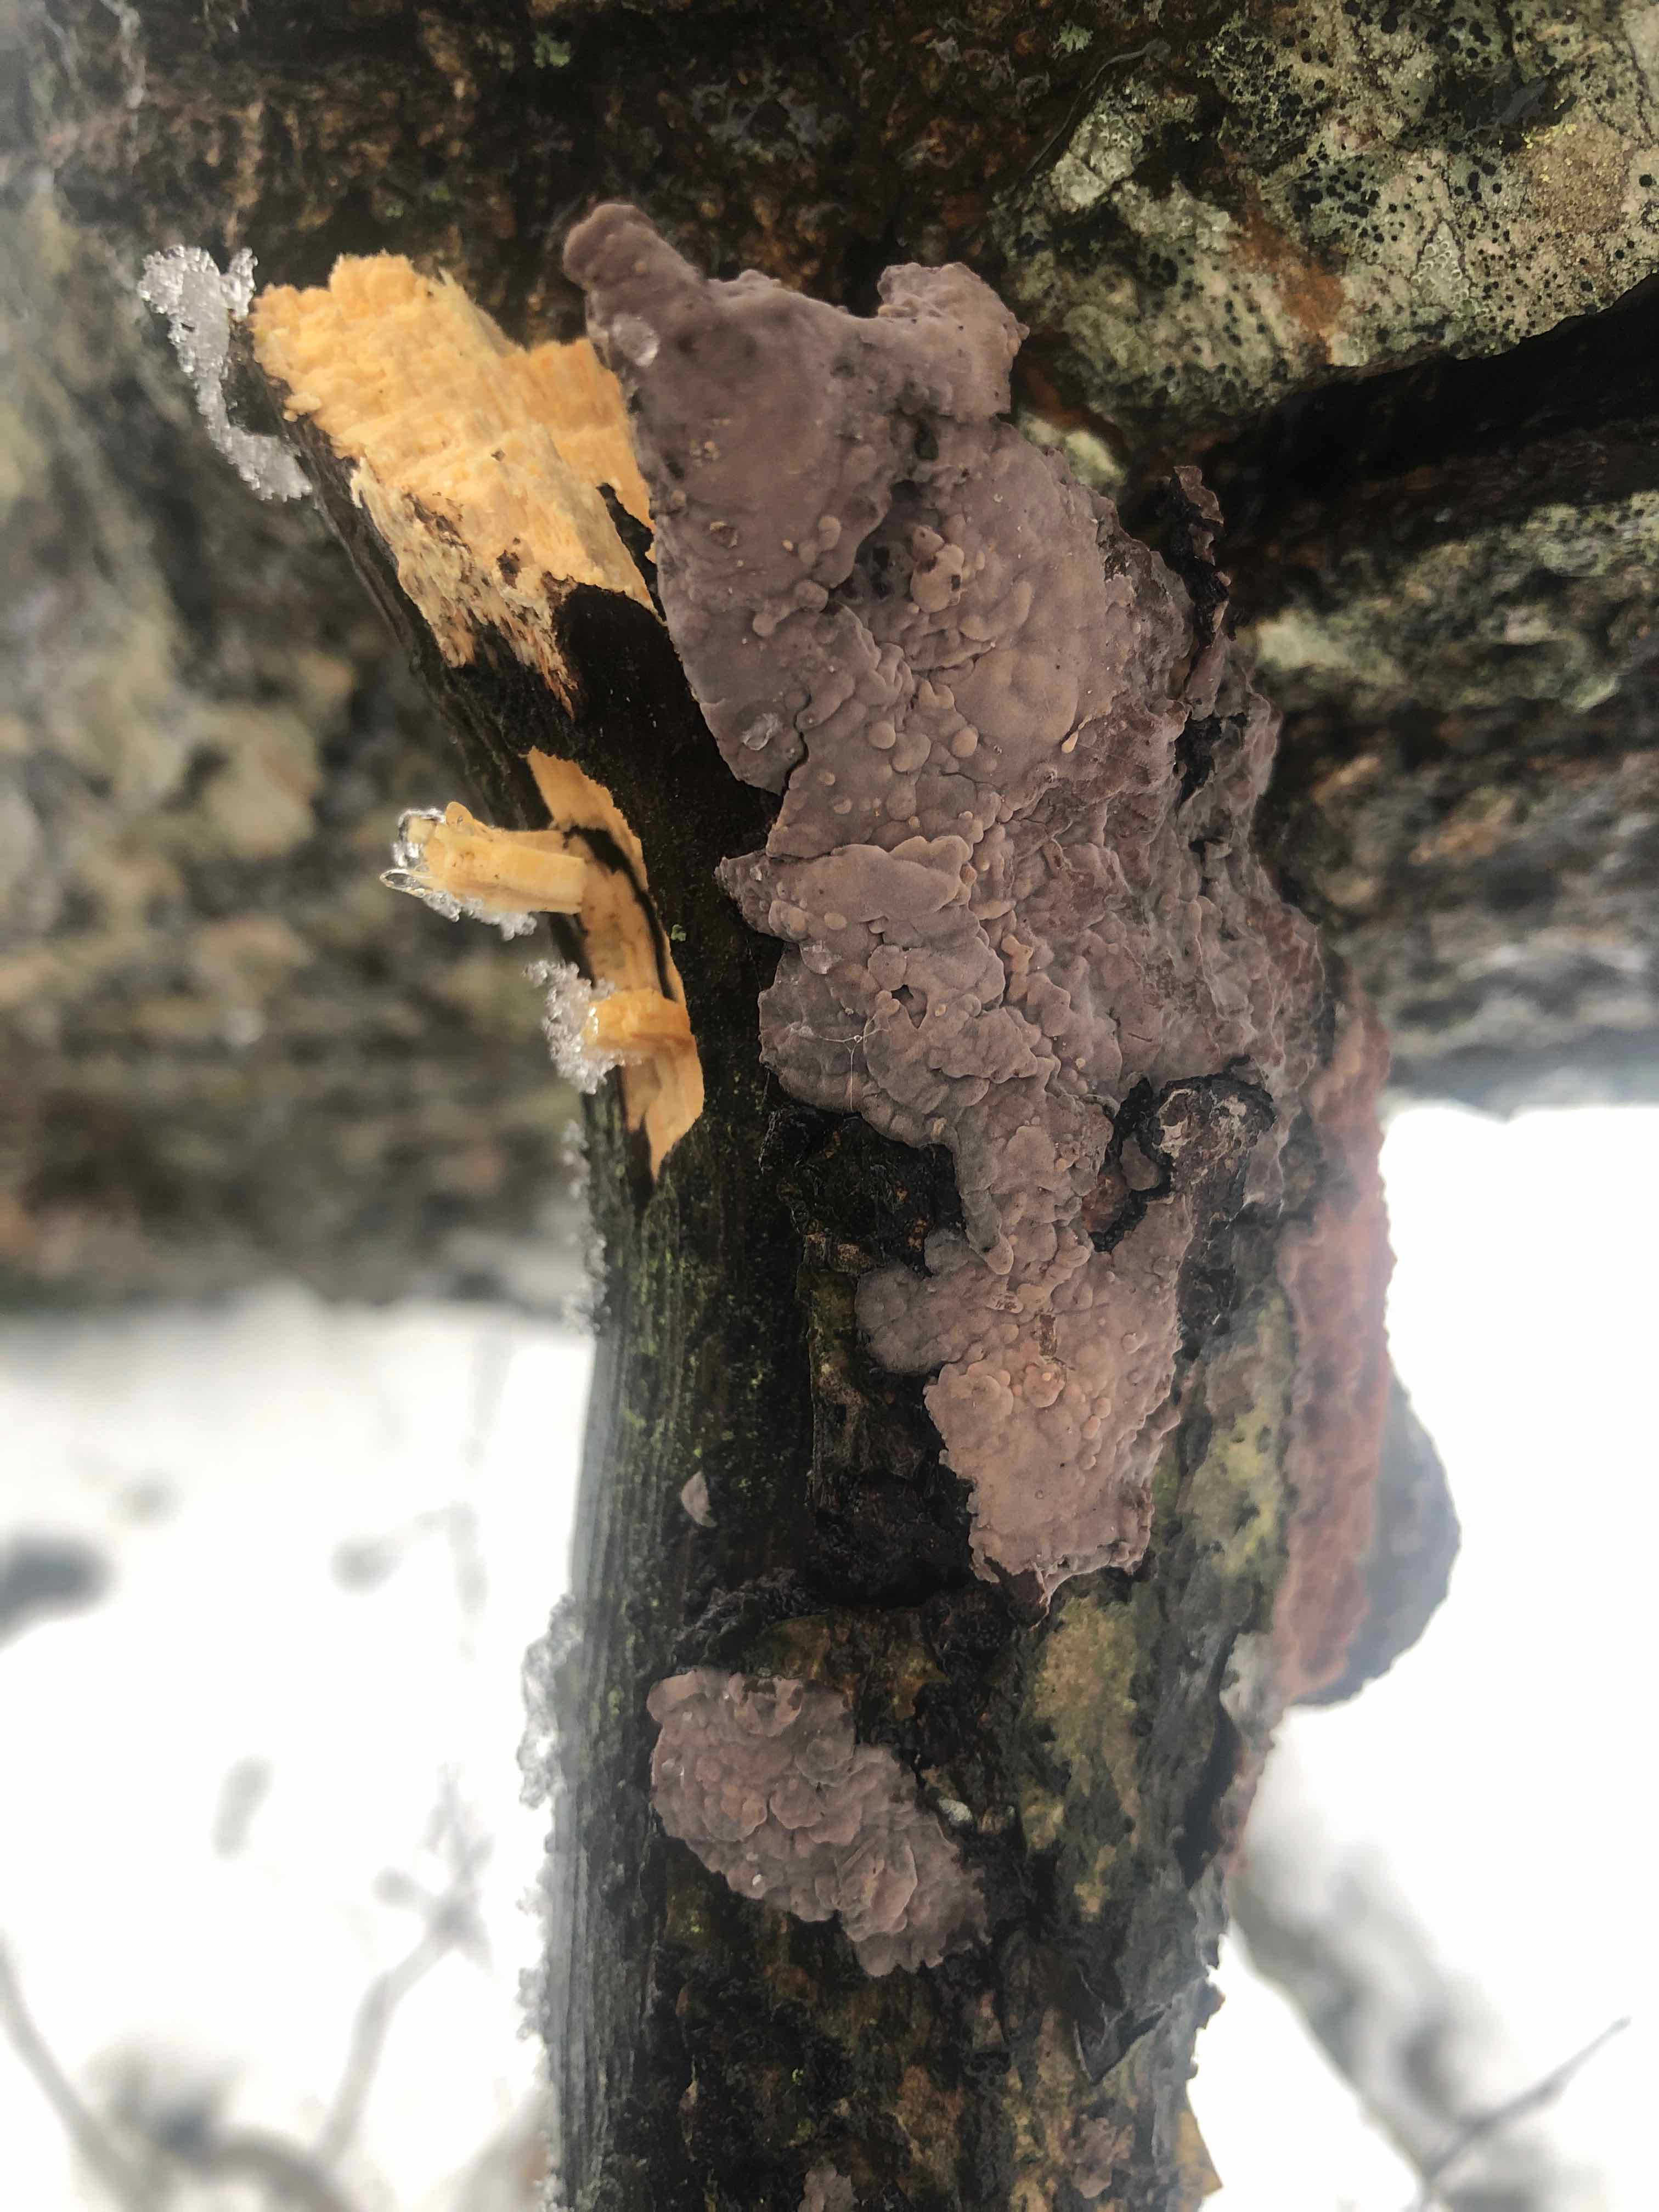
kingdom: Fungi
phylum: Basidiomycota
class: Agaricomycetes
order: Russulales
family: Peniophoraceae
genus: Peniophora
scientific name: Peniophora quercina
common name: ege-voksskind
